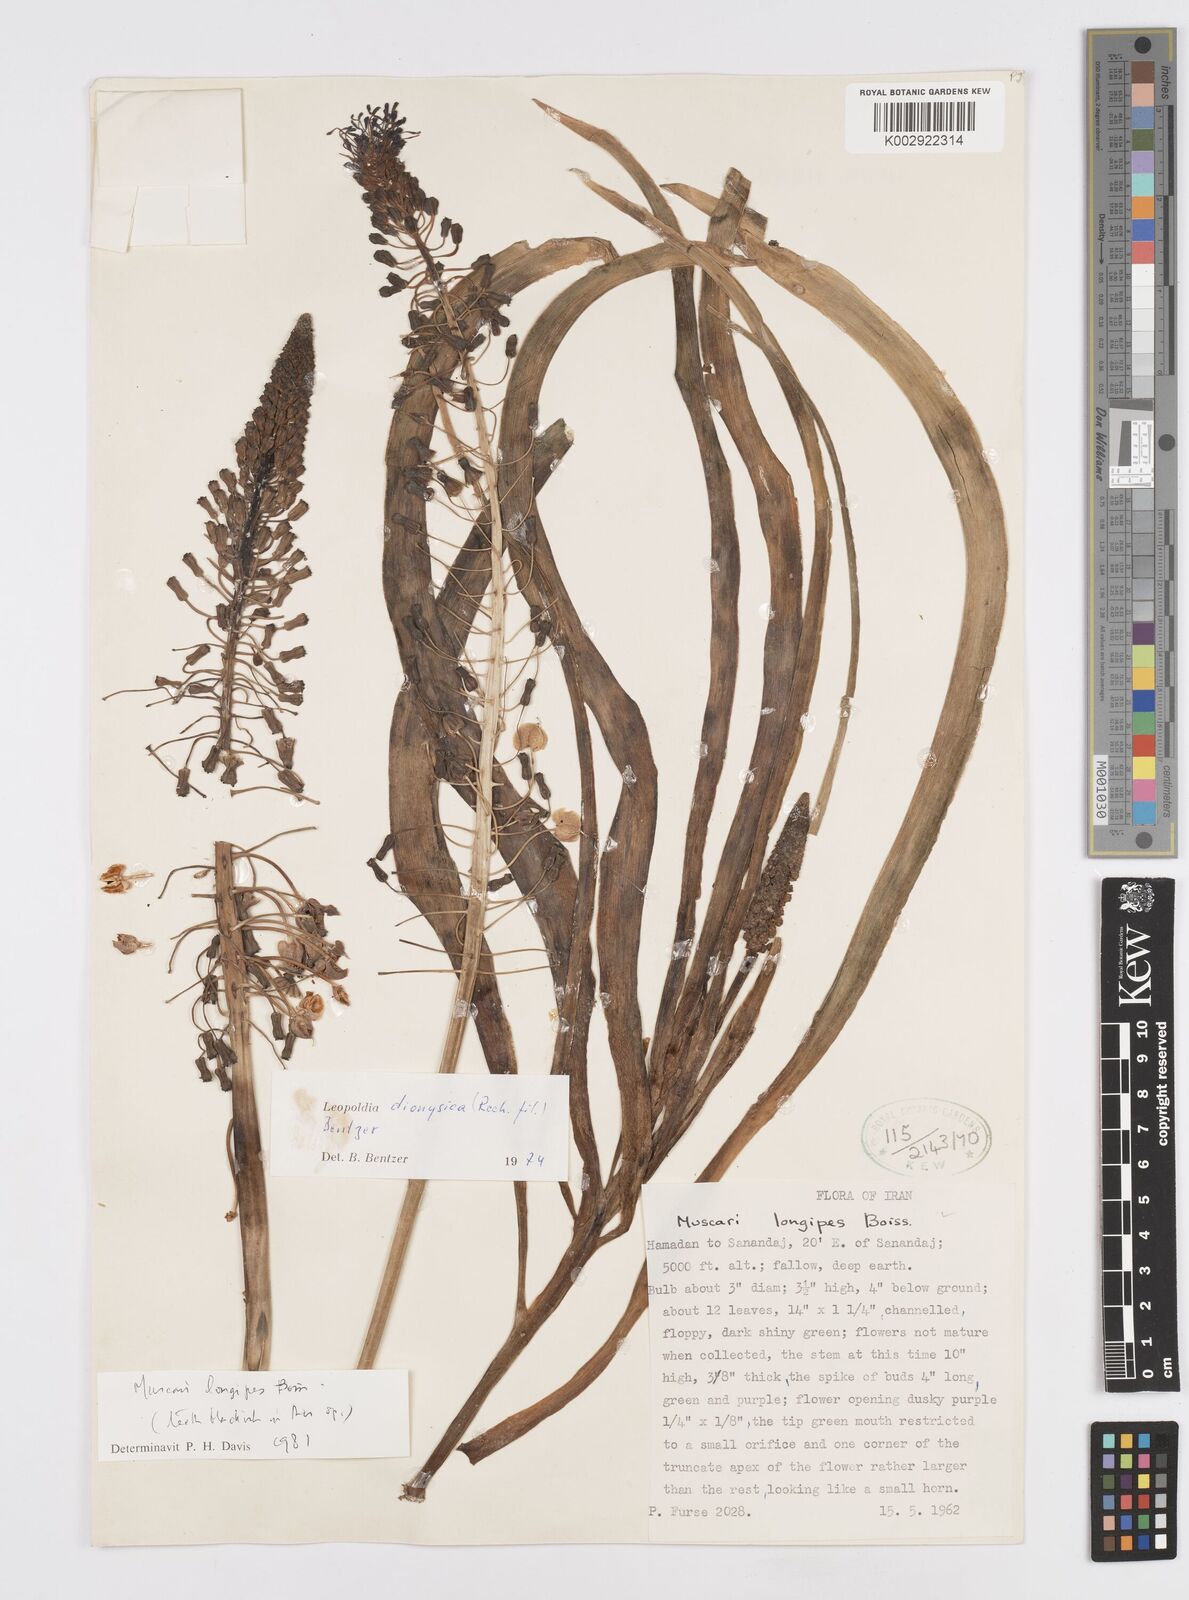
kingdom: Plantae
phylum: Tracheophyta
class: Liliopsida
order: Asparagales
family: Asparagaceae
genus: Muscari
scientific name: Muscari weissii
